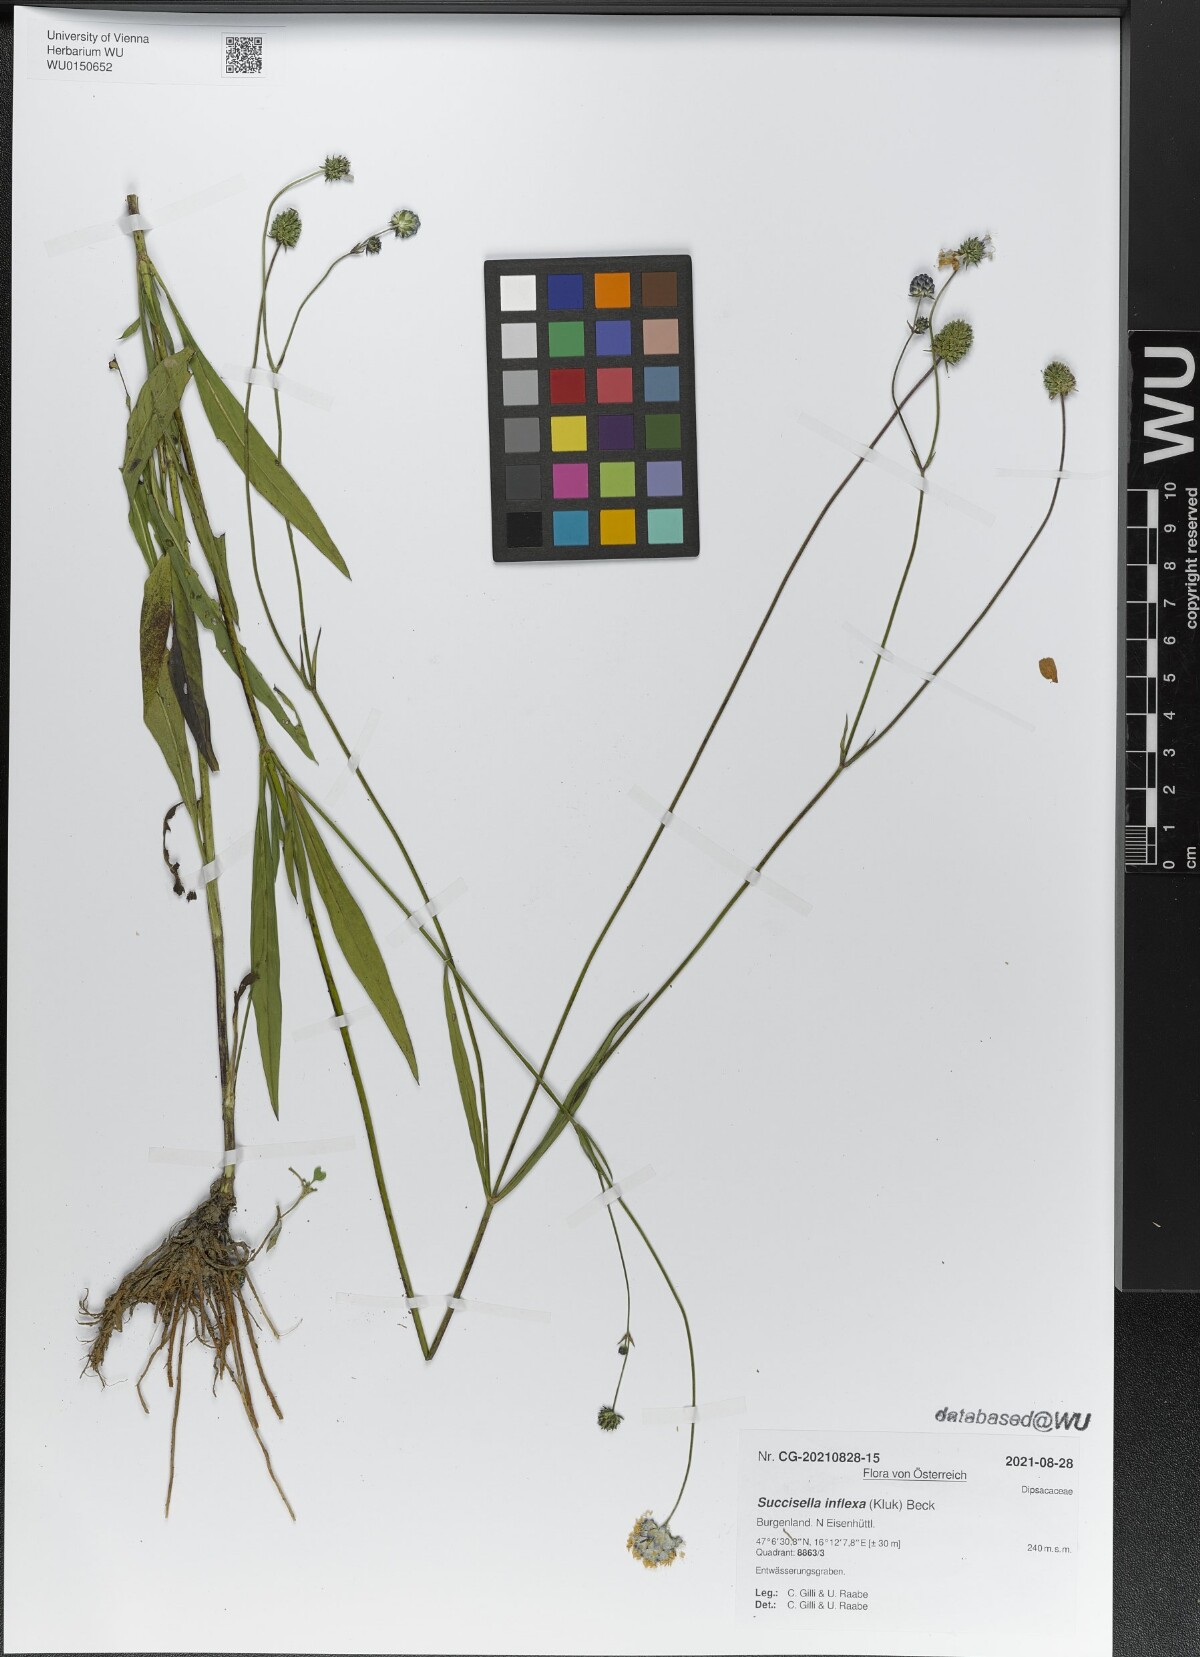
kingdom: Plantae
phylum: Tracheophyta
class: Magnoliopsida
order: Dipsacales
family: Caprifoliaceae
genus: Succisella
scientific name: Succisella inflexa
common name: Southern succisella
